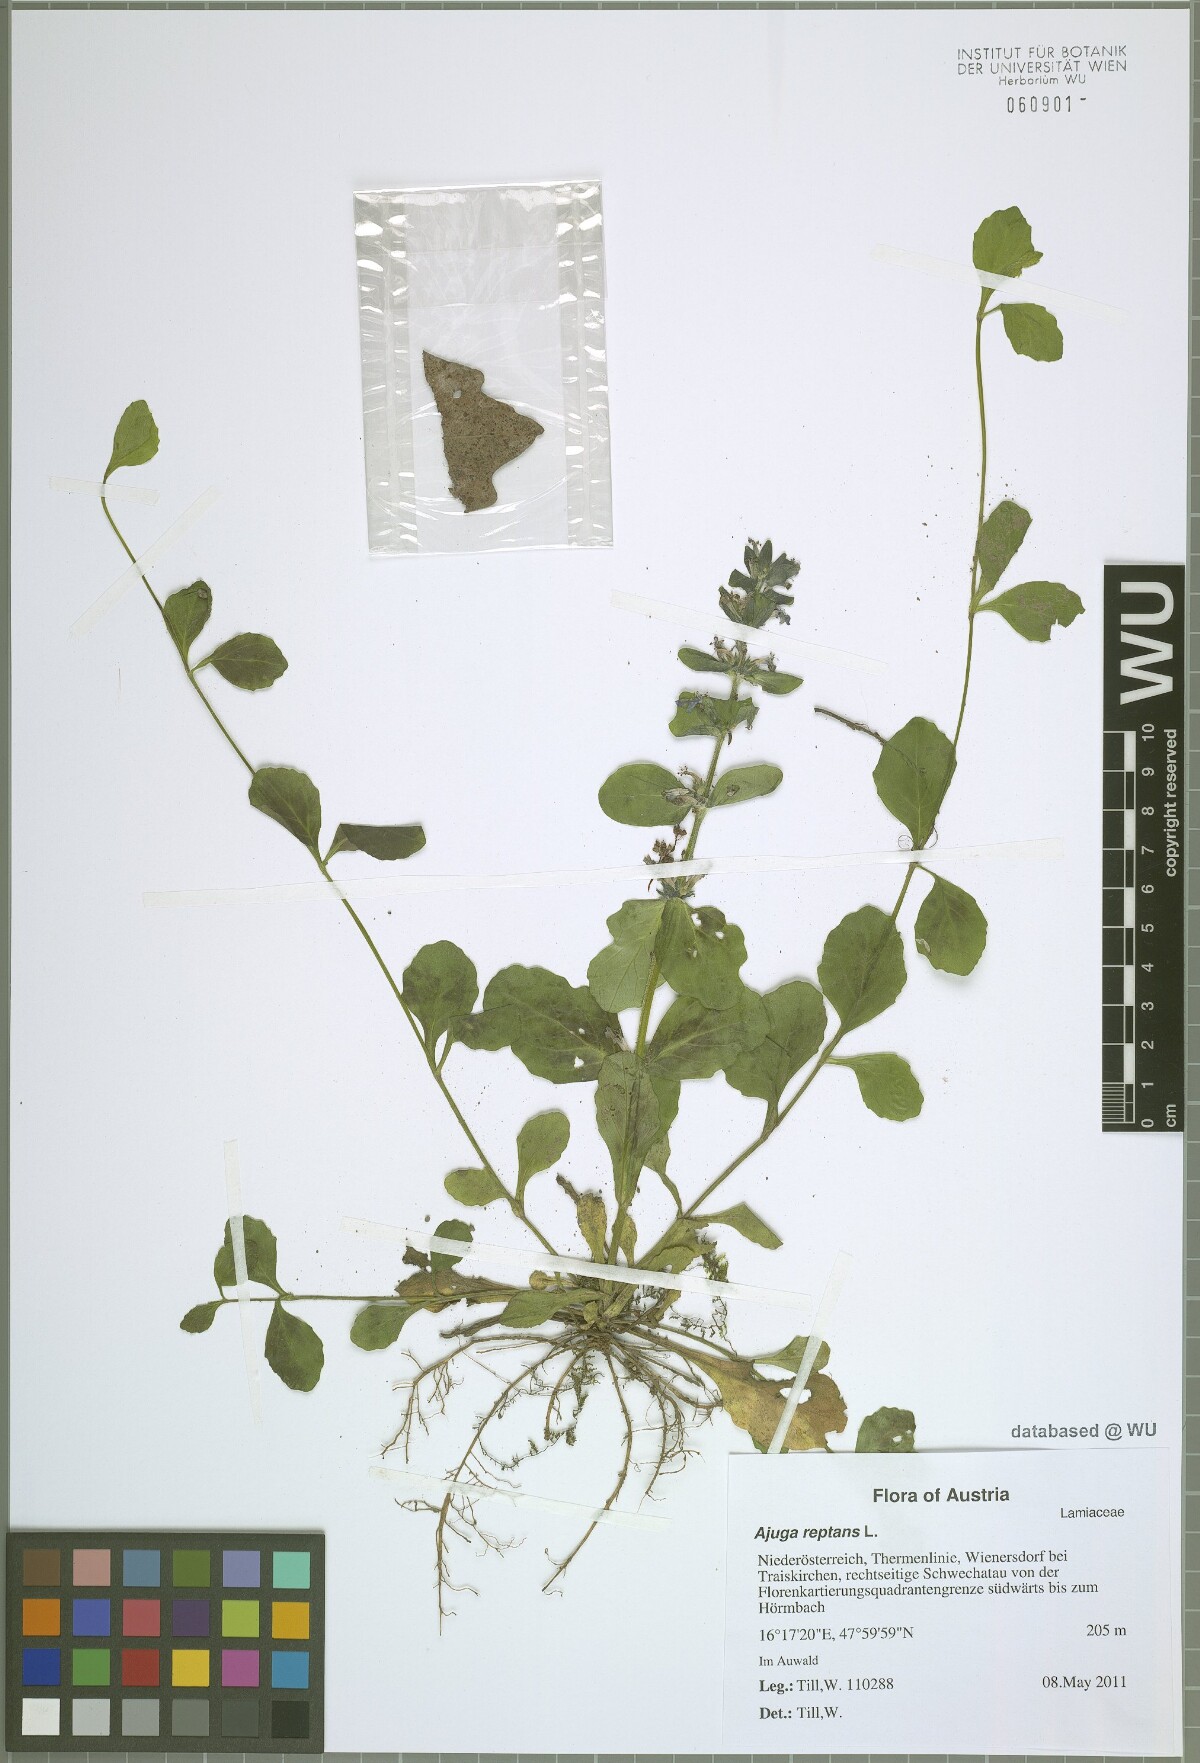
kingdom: Plantae
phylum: Tracheophyta
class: Magnoliopsida
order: Lamiales
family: Lamiaceae
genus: Ajuga
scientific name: Ajuga reptans
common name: Bugle
